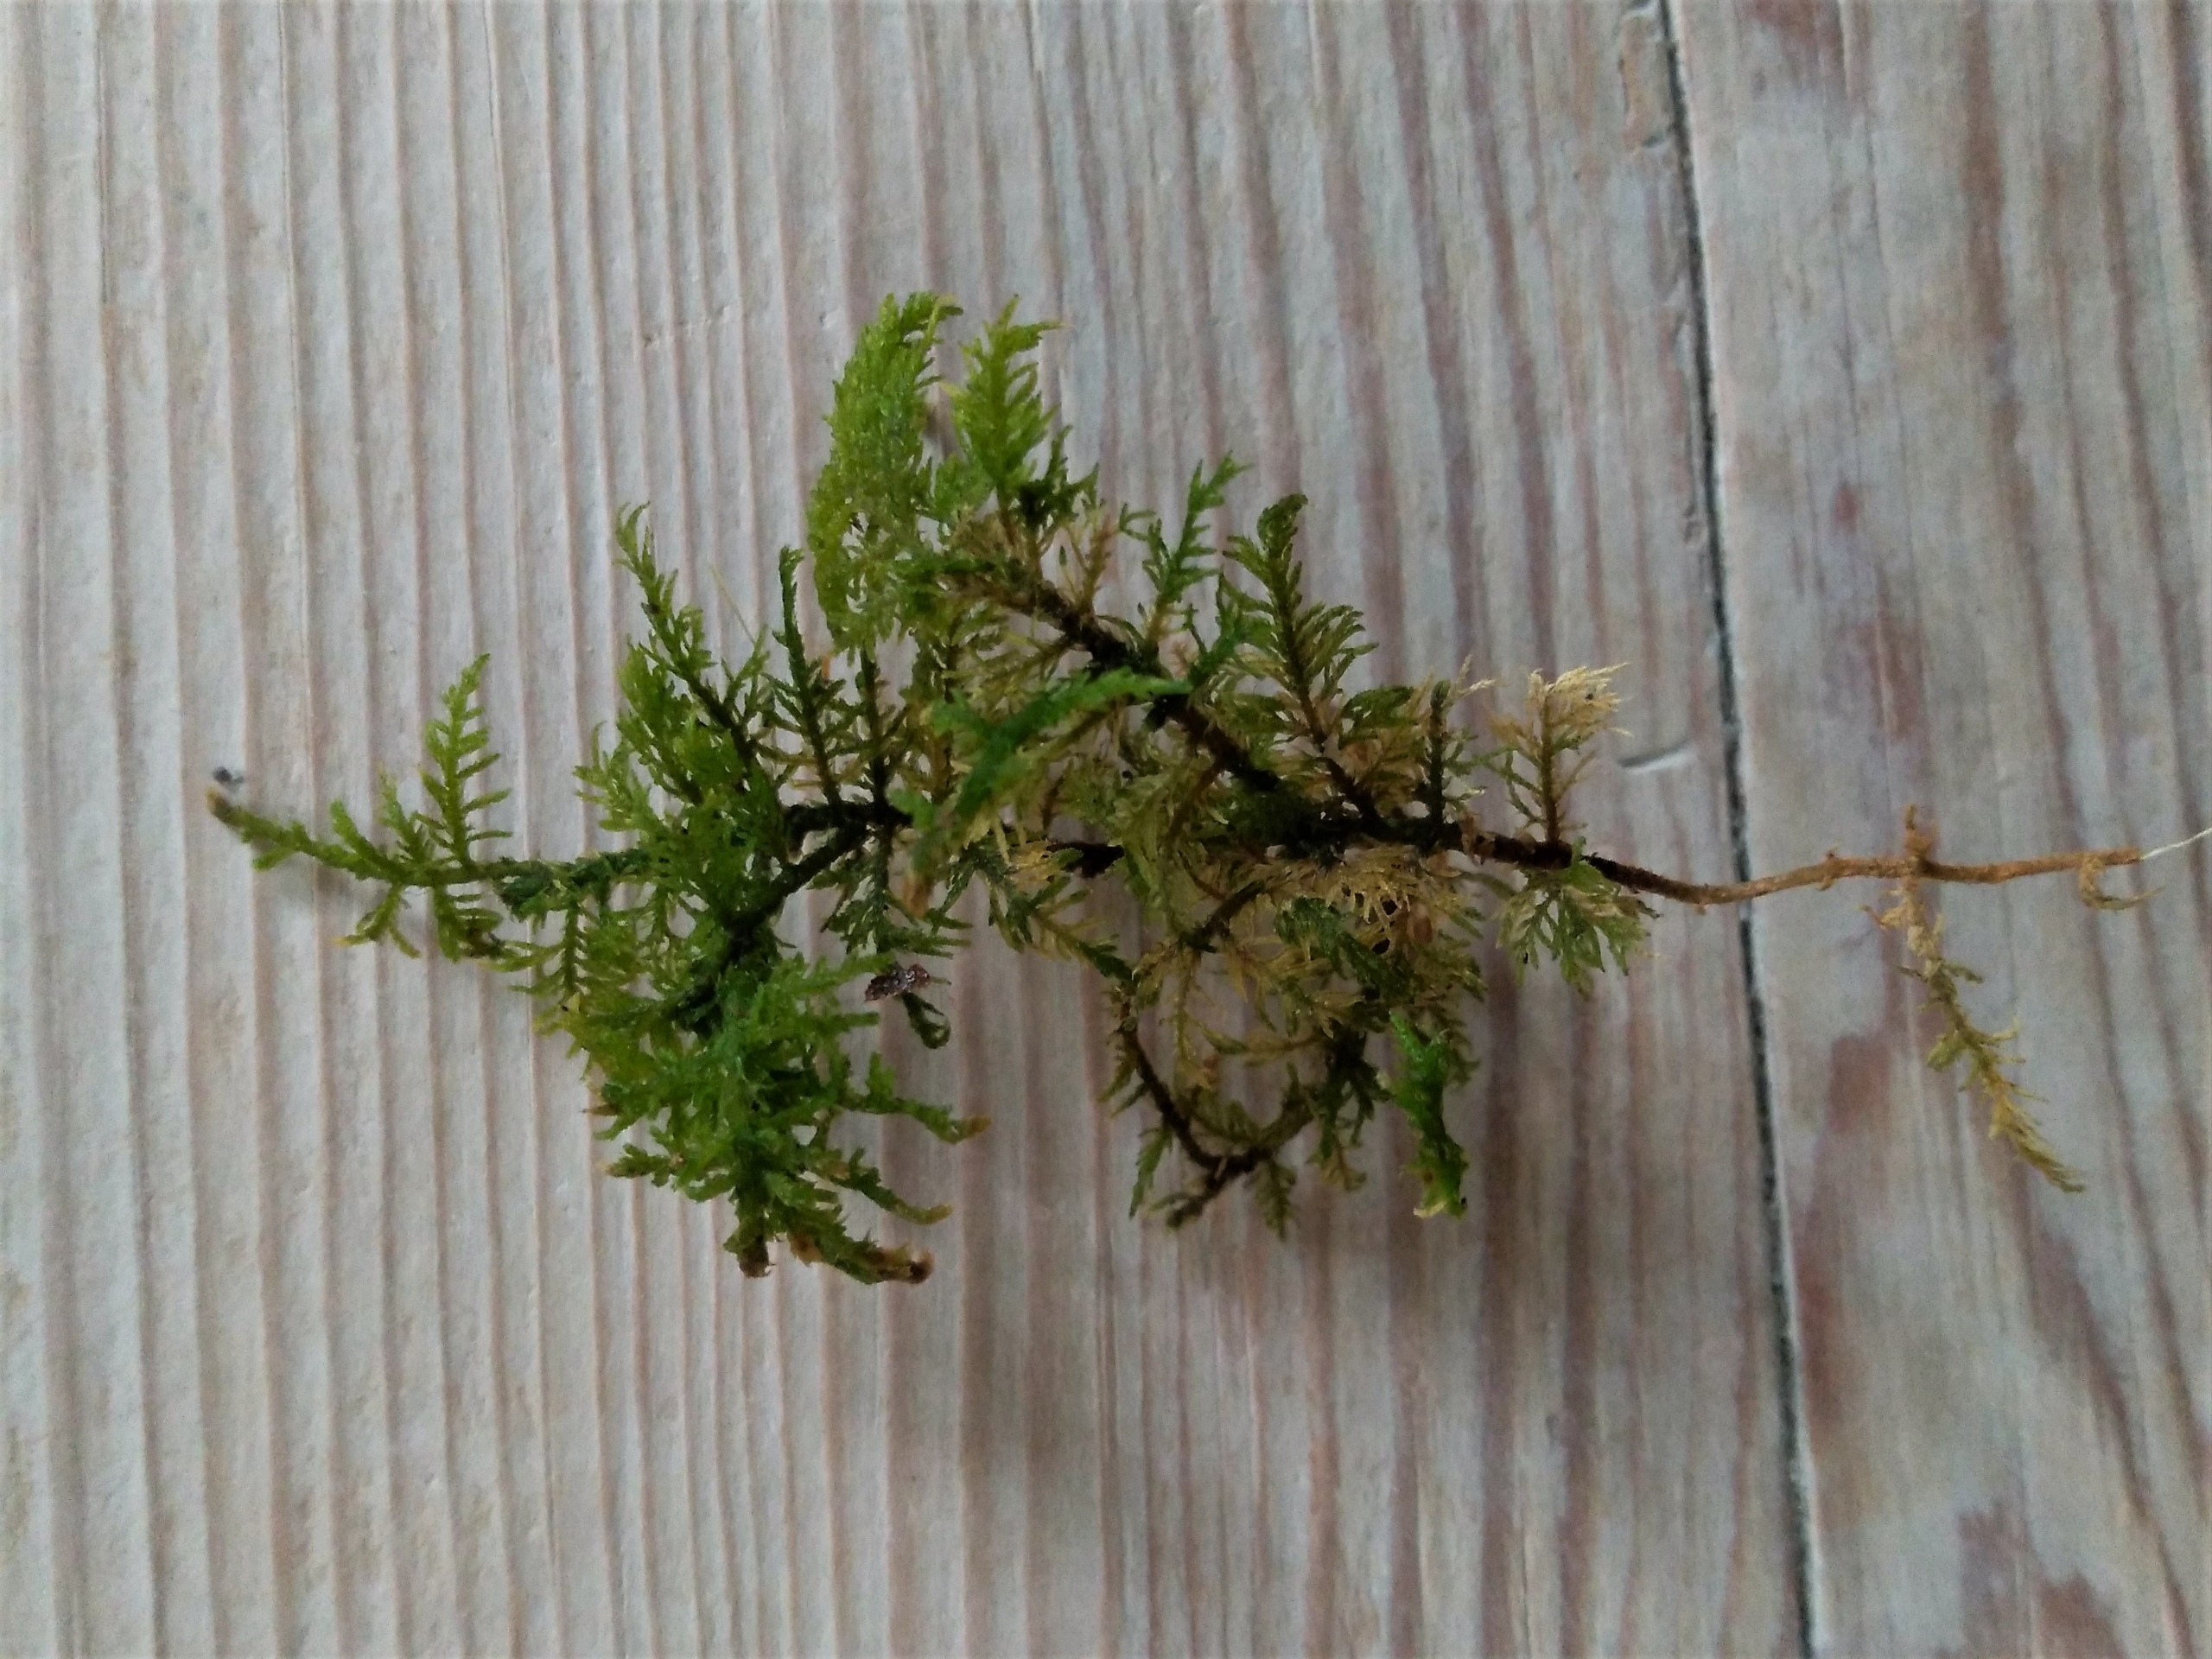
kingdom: Plantae
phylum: Bryophyta
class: Bryopsida
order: Hypnales
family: Thuidiaceae
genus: Thuidium
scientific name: Thuidium delicatulum
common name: Fingrenet bregnemos
